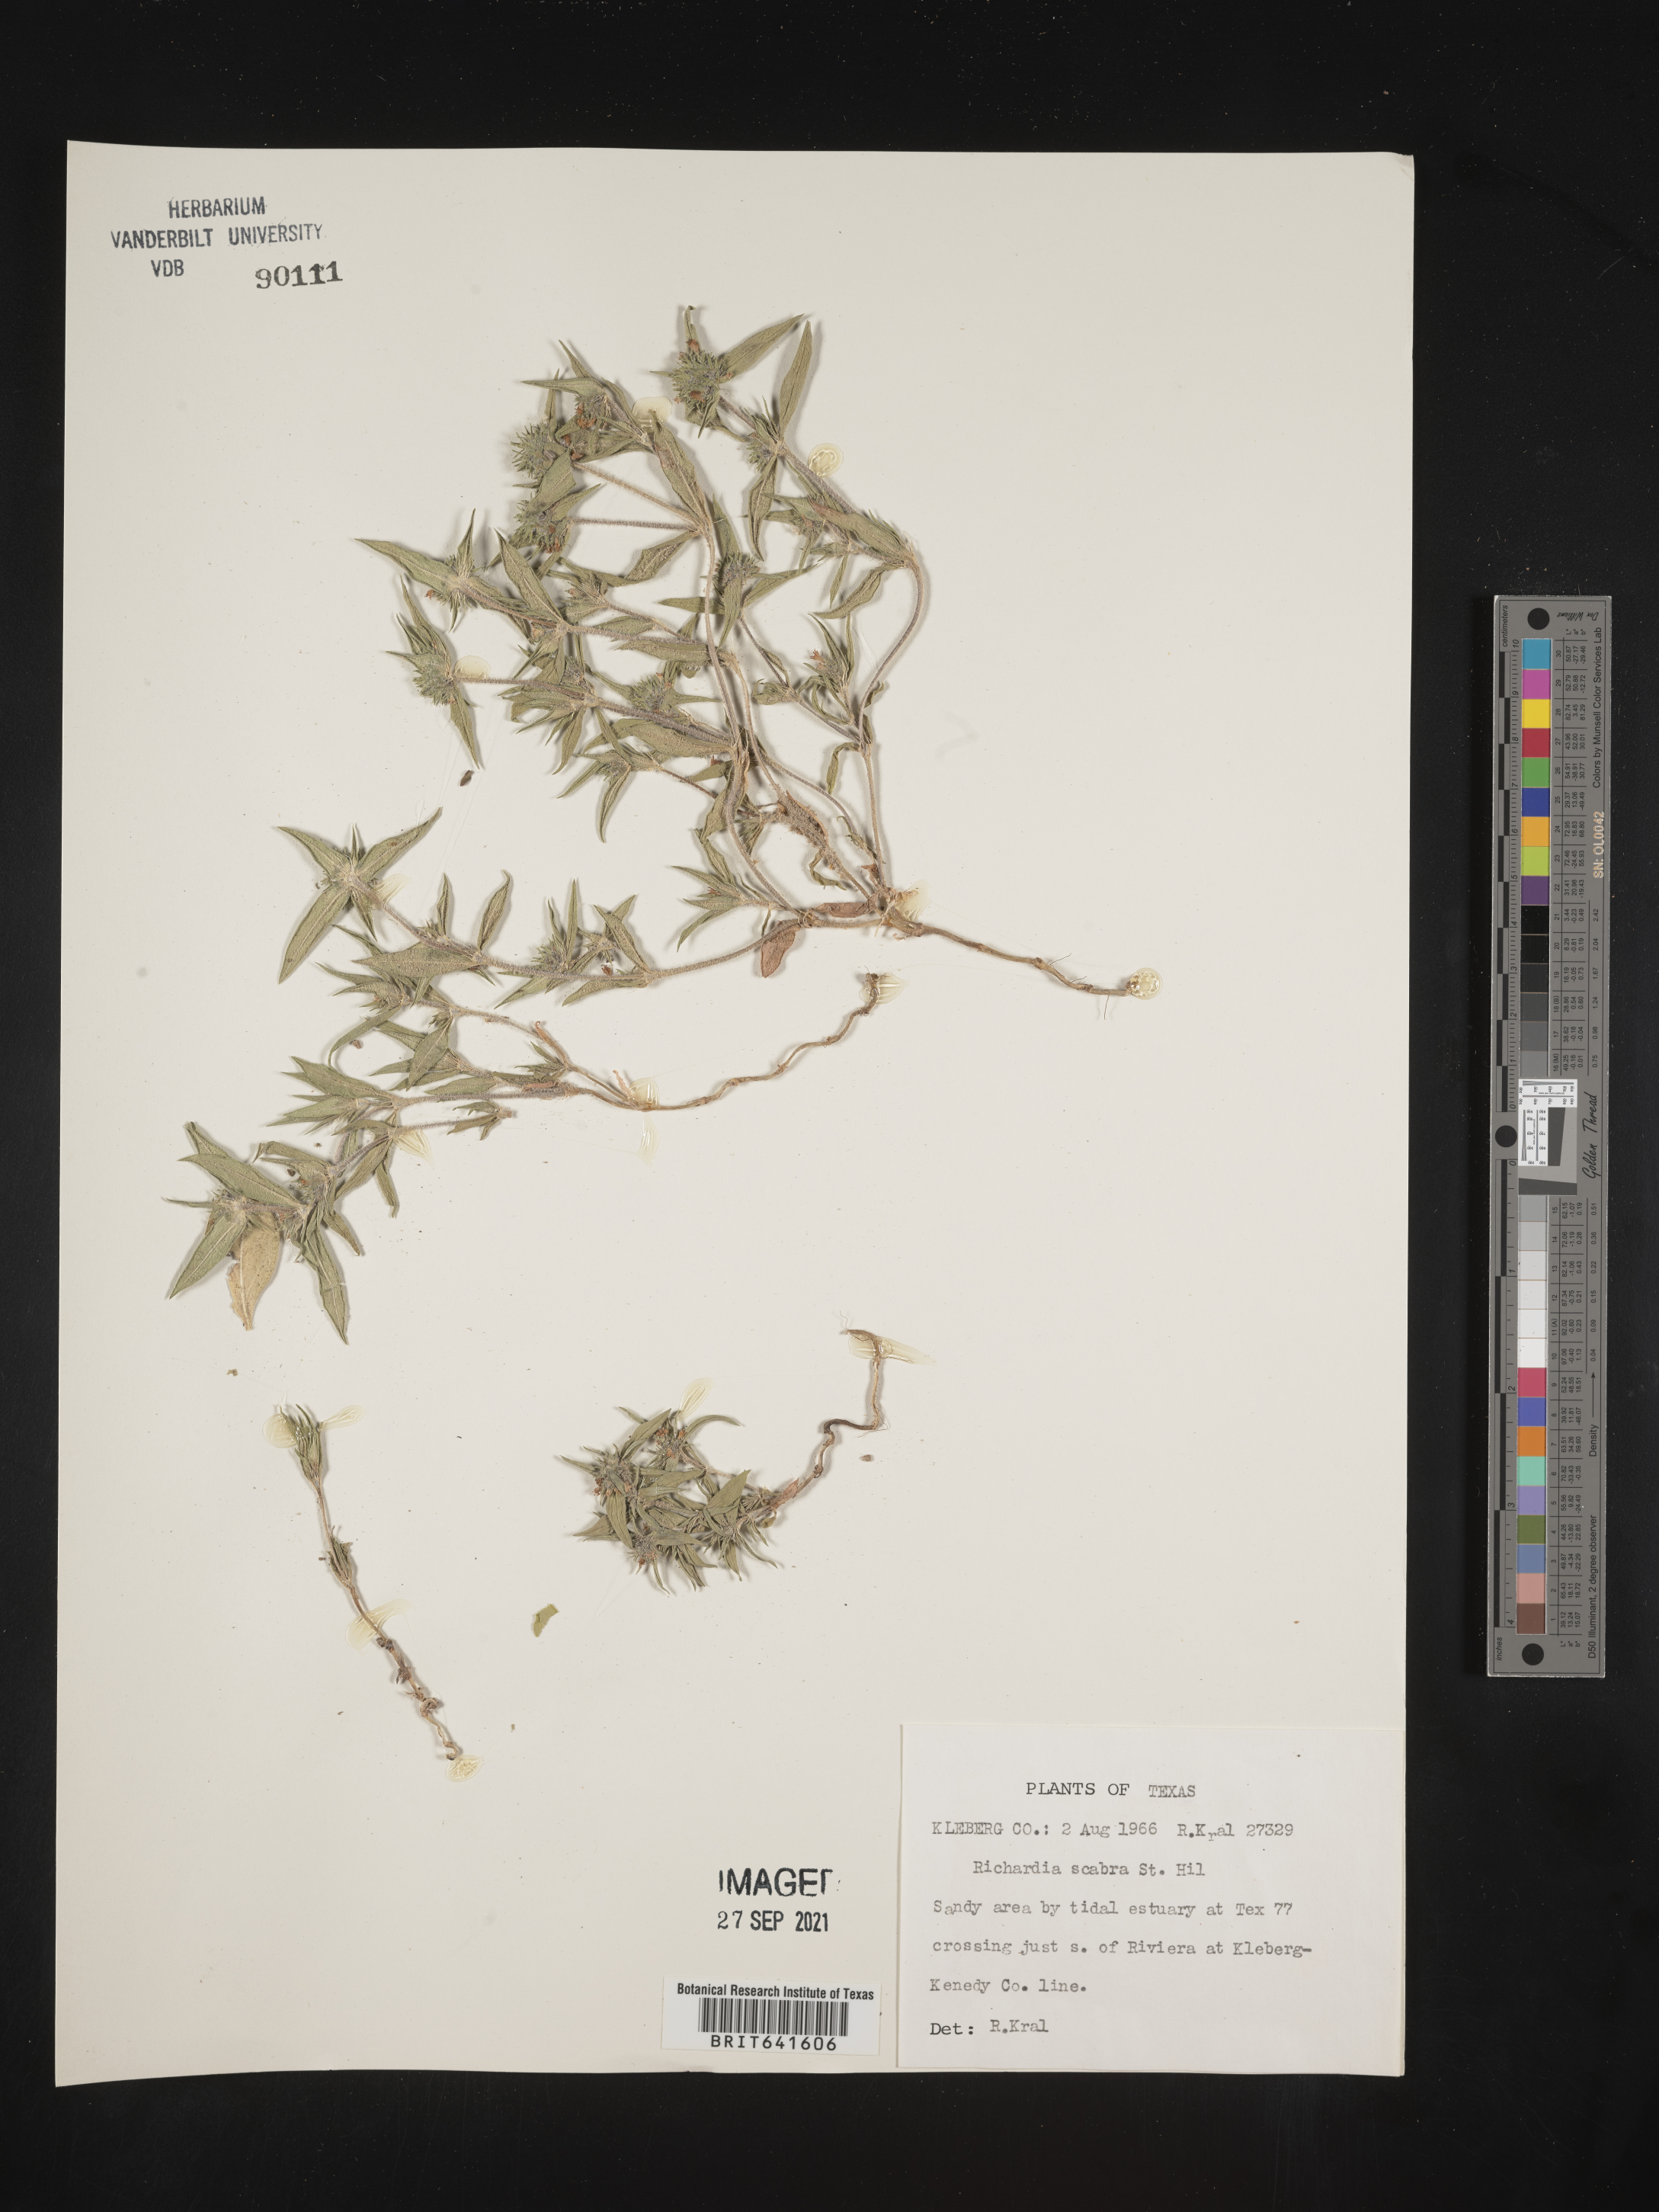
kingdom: Plantae
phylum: Tracheophyta
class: Magnoliopsida
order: Gentianales
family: Rubiaceae
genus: Richardia
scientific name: Richardia scabra
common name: Rough mexican clover
